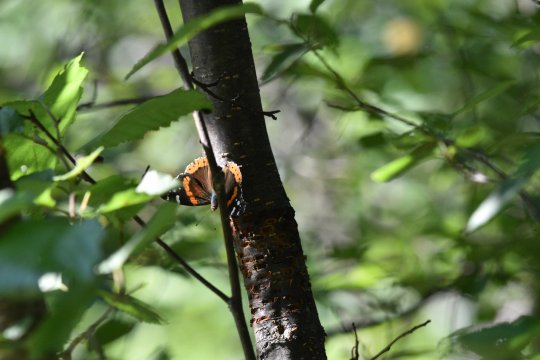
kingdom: Animalia
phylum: Arthropoda
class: Insecta
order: Lepidoptera
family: Nymphalidae
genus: Vanessa
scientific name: Vanessa atalanta
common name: Red Admiral
